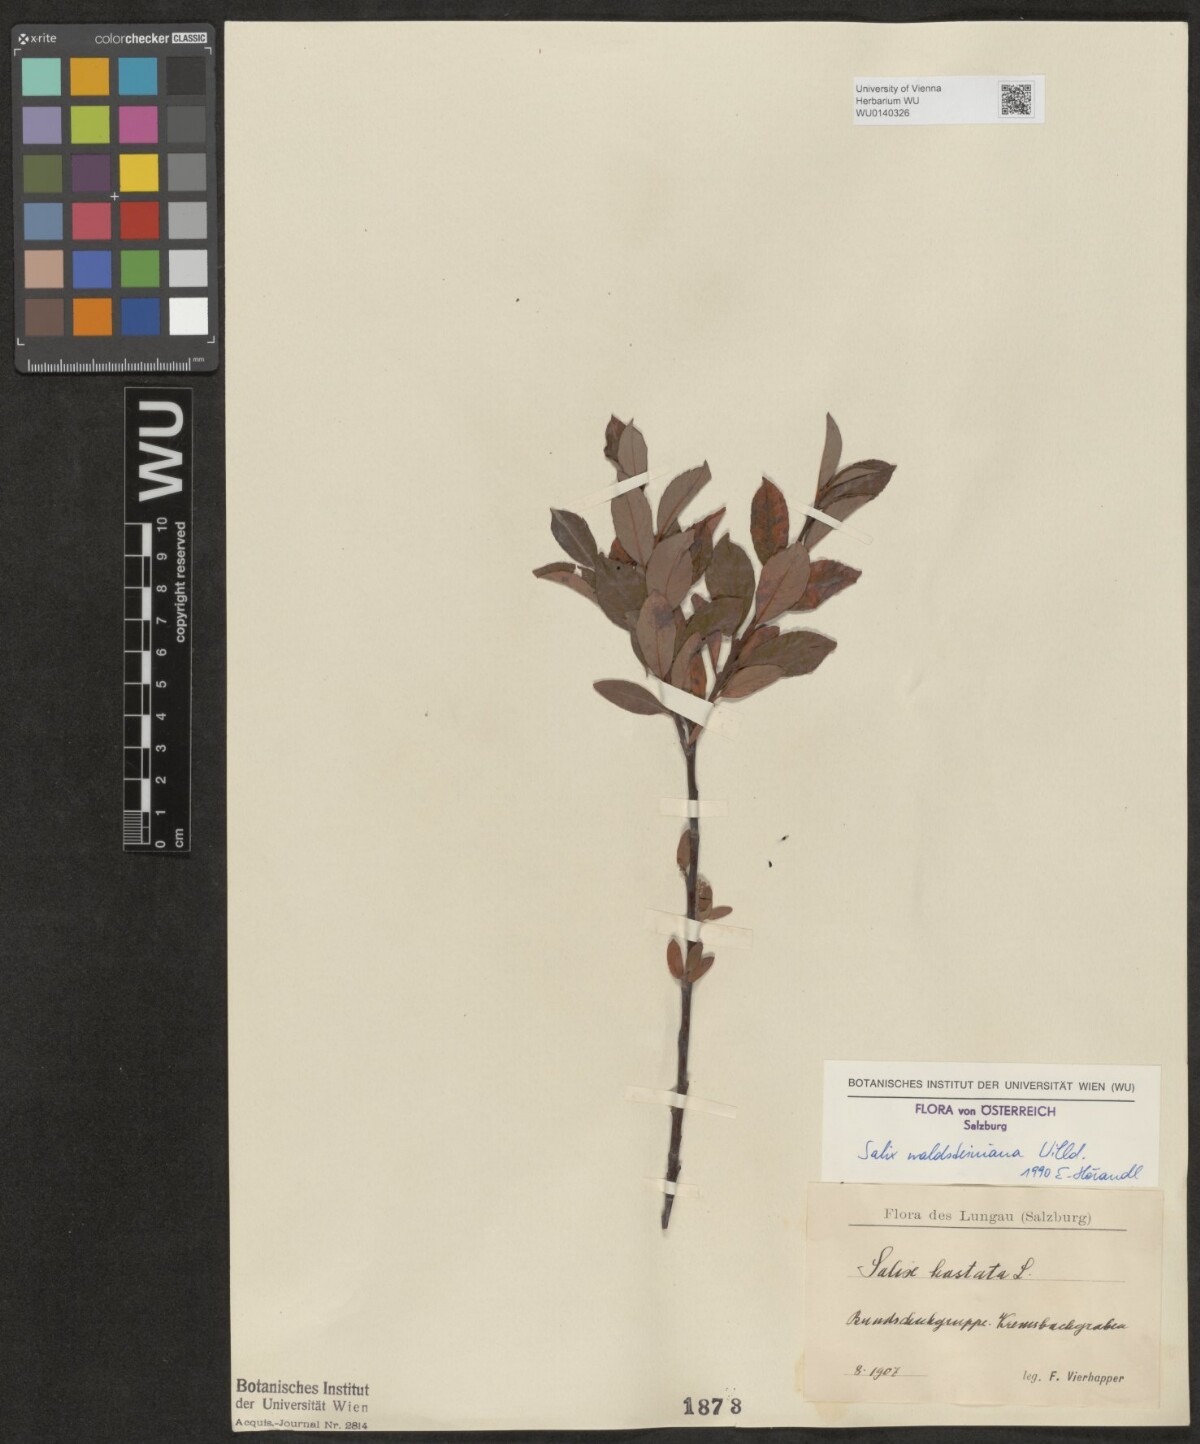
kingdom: Plantae
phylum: Tracheophyta
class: Magnoliopsida
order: Malpighiales
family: Salicaceae
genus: Salix
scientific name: Salix waldsteiniana
